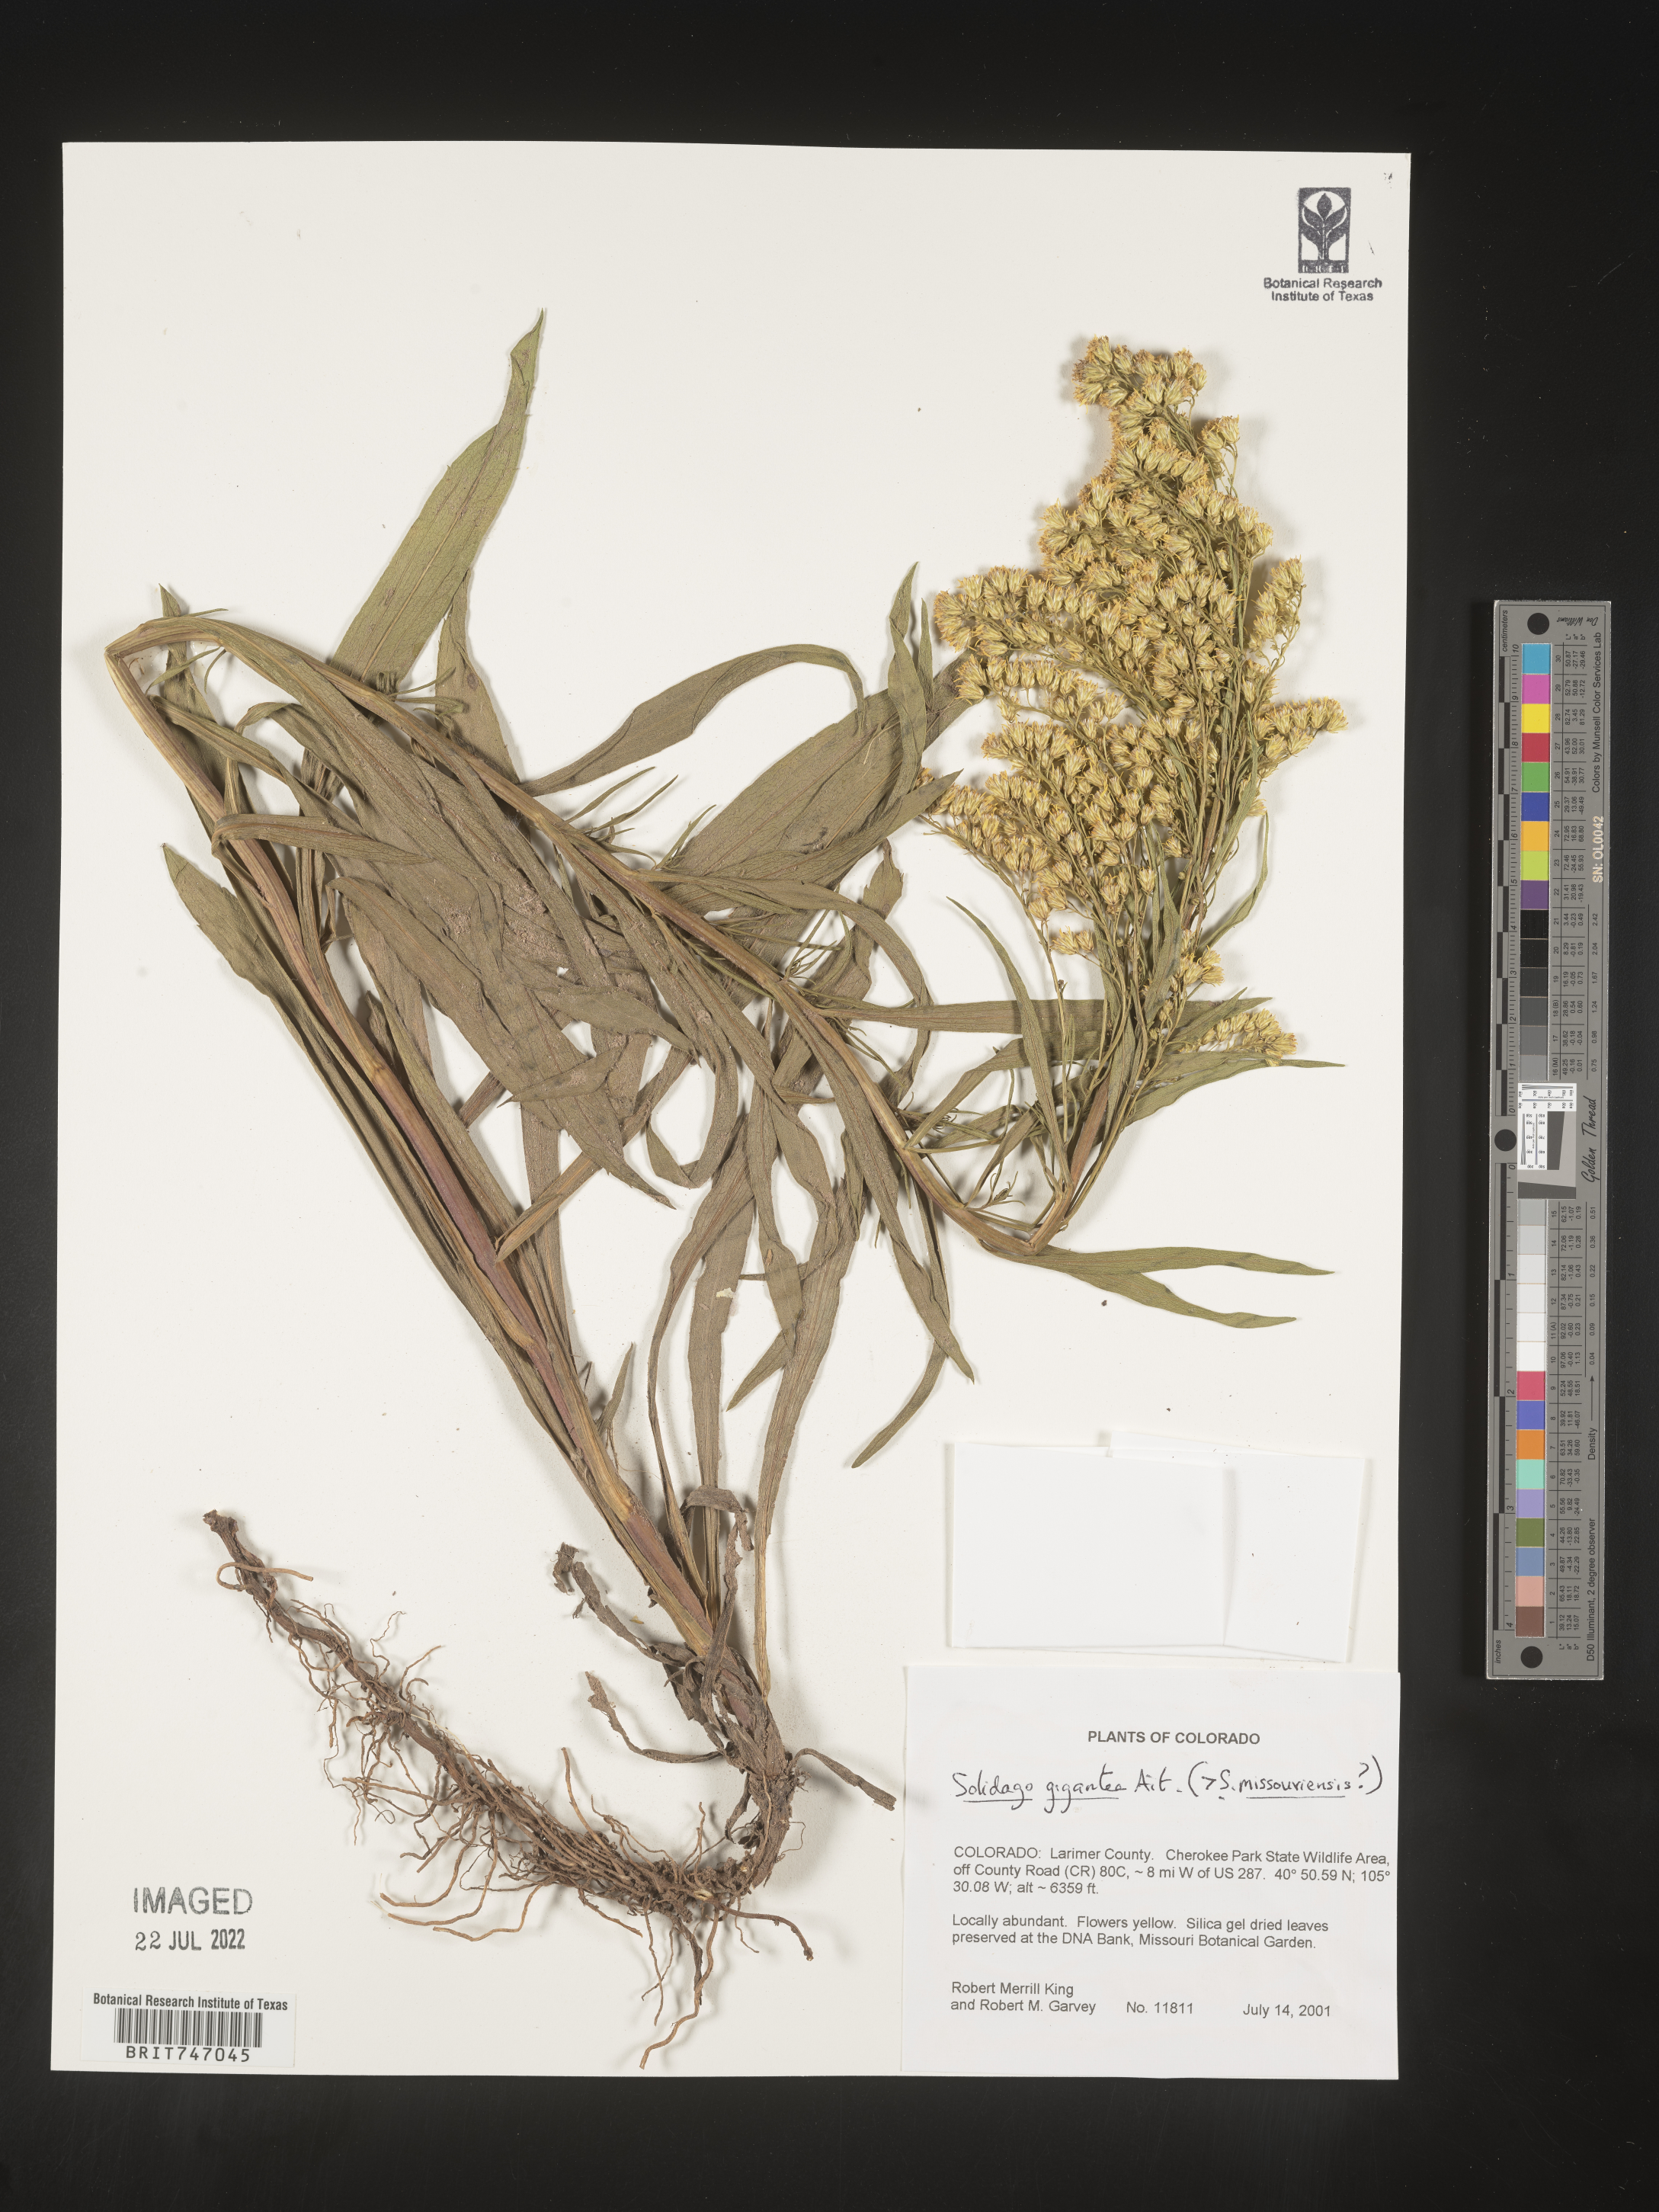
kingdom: Plantae
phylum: Tracheophyta
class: Magnoliopsida
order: Asterales
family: Asteraceae
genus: Solidago
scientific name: Solidago missouriensis
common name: Prairie goldenrod
